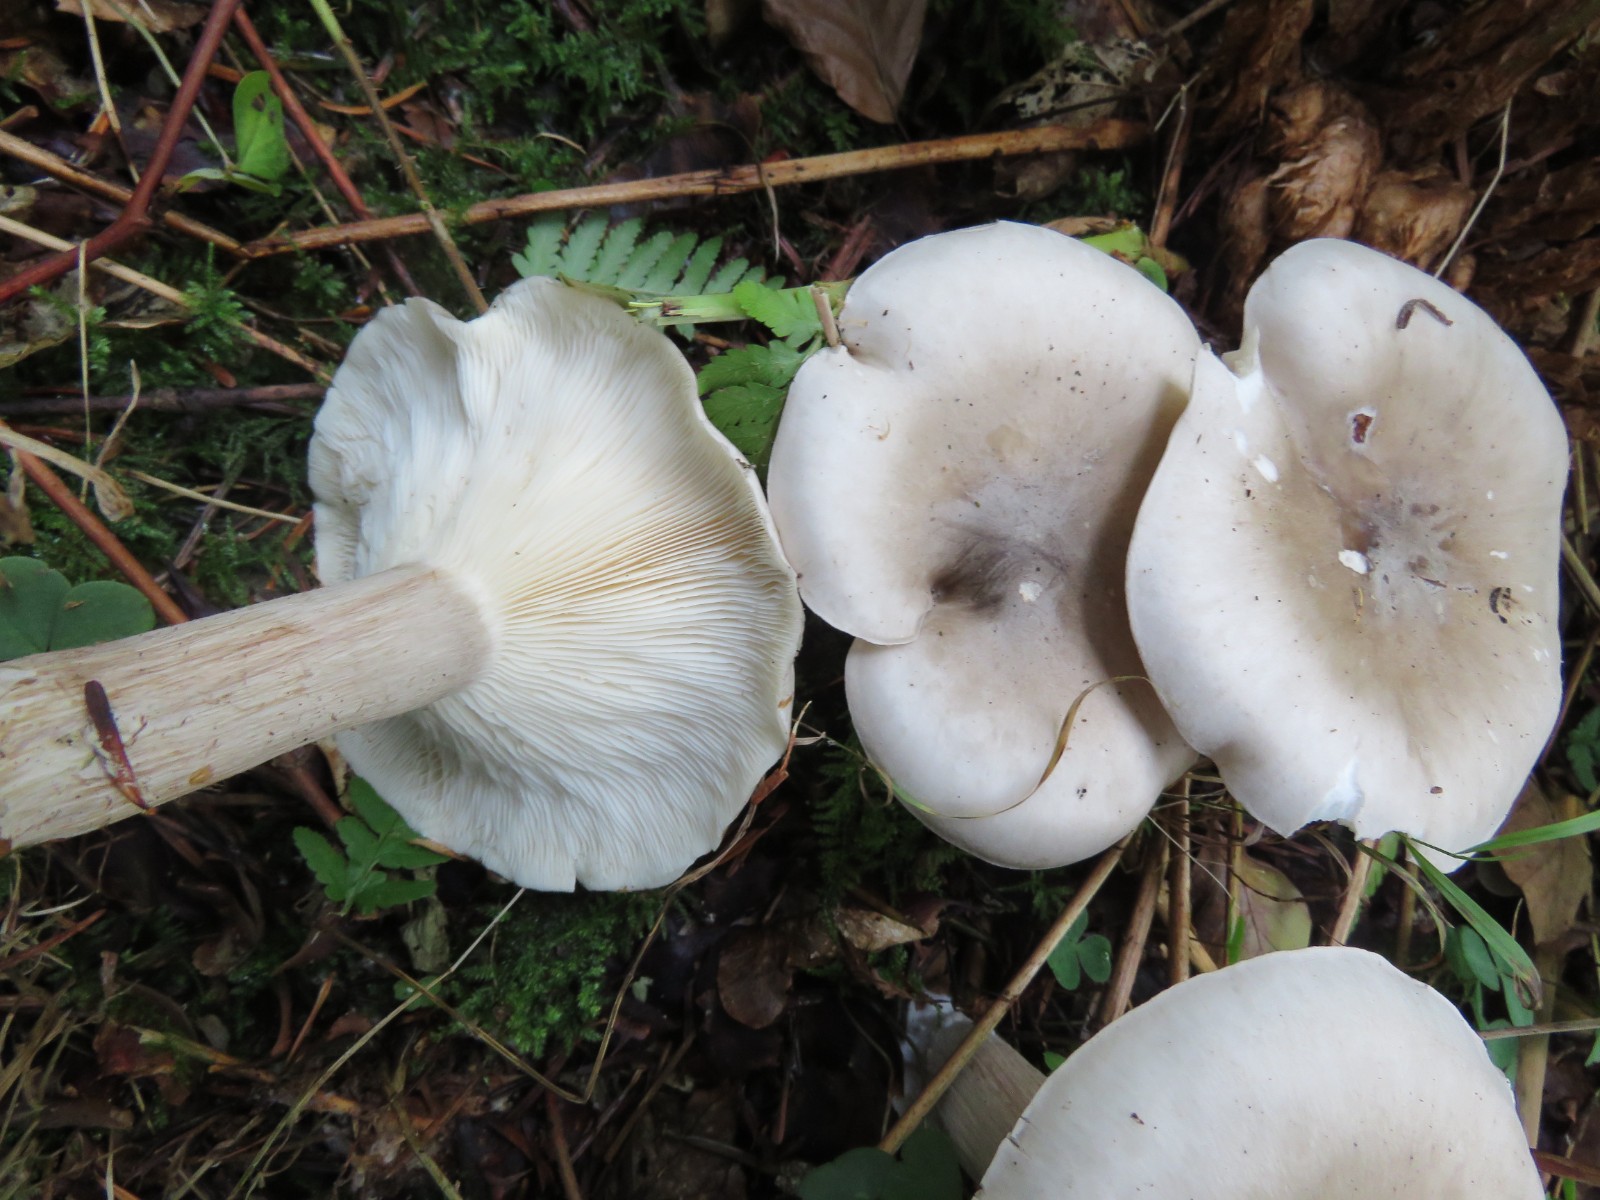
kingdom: Fungi
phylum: Basidiomycota
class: Agaricomycetes
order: Agaricales
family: Tricholomataceae
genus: Clitocybe
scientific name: Clitocybe nebularis
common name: tåge-tragthat
